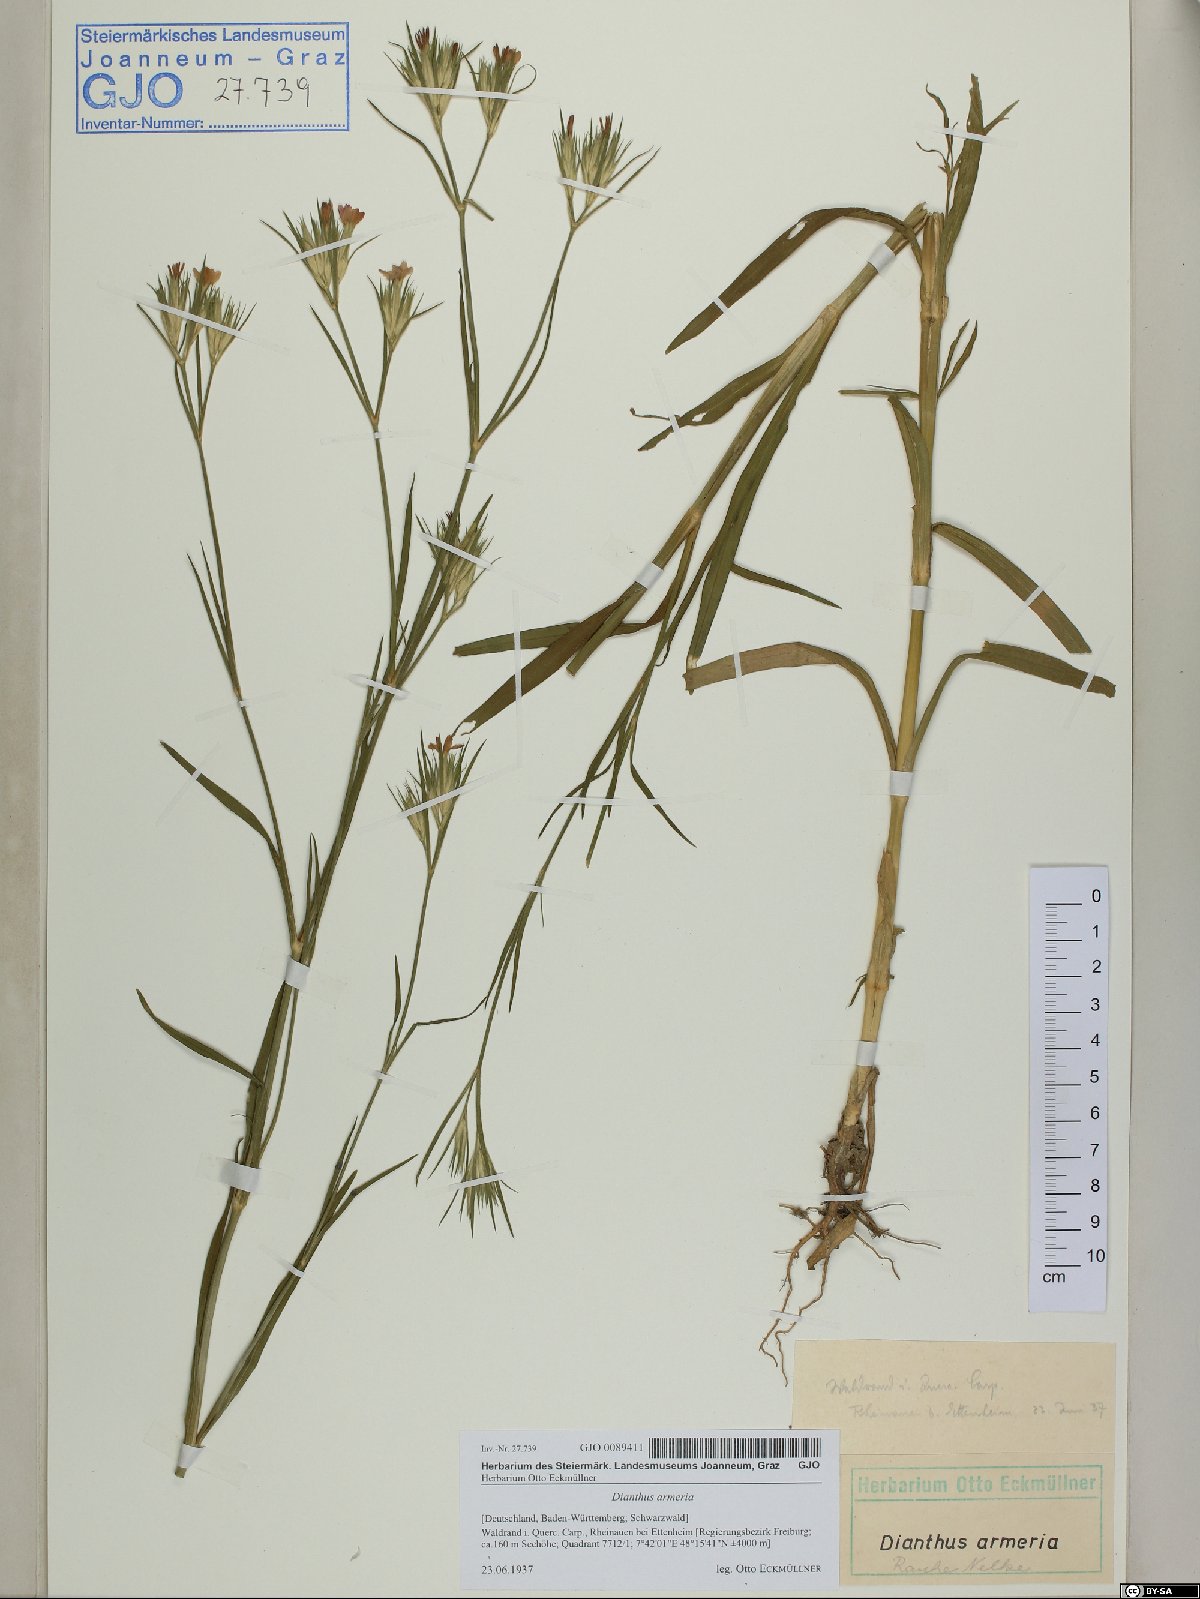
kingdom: Plantae
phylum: Tracheophyta
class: Magnoliopsida
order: Caryophyllales
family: Caryophyllaceae
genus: Dianthus
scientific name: Dianthus armeria
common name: Deptford pink
